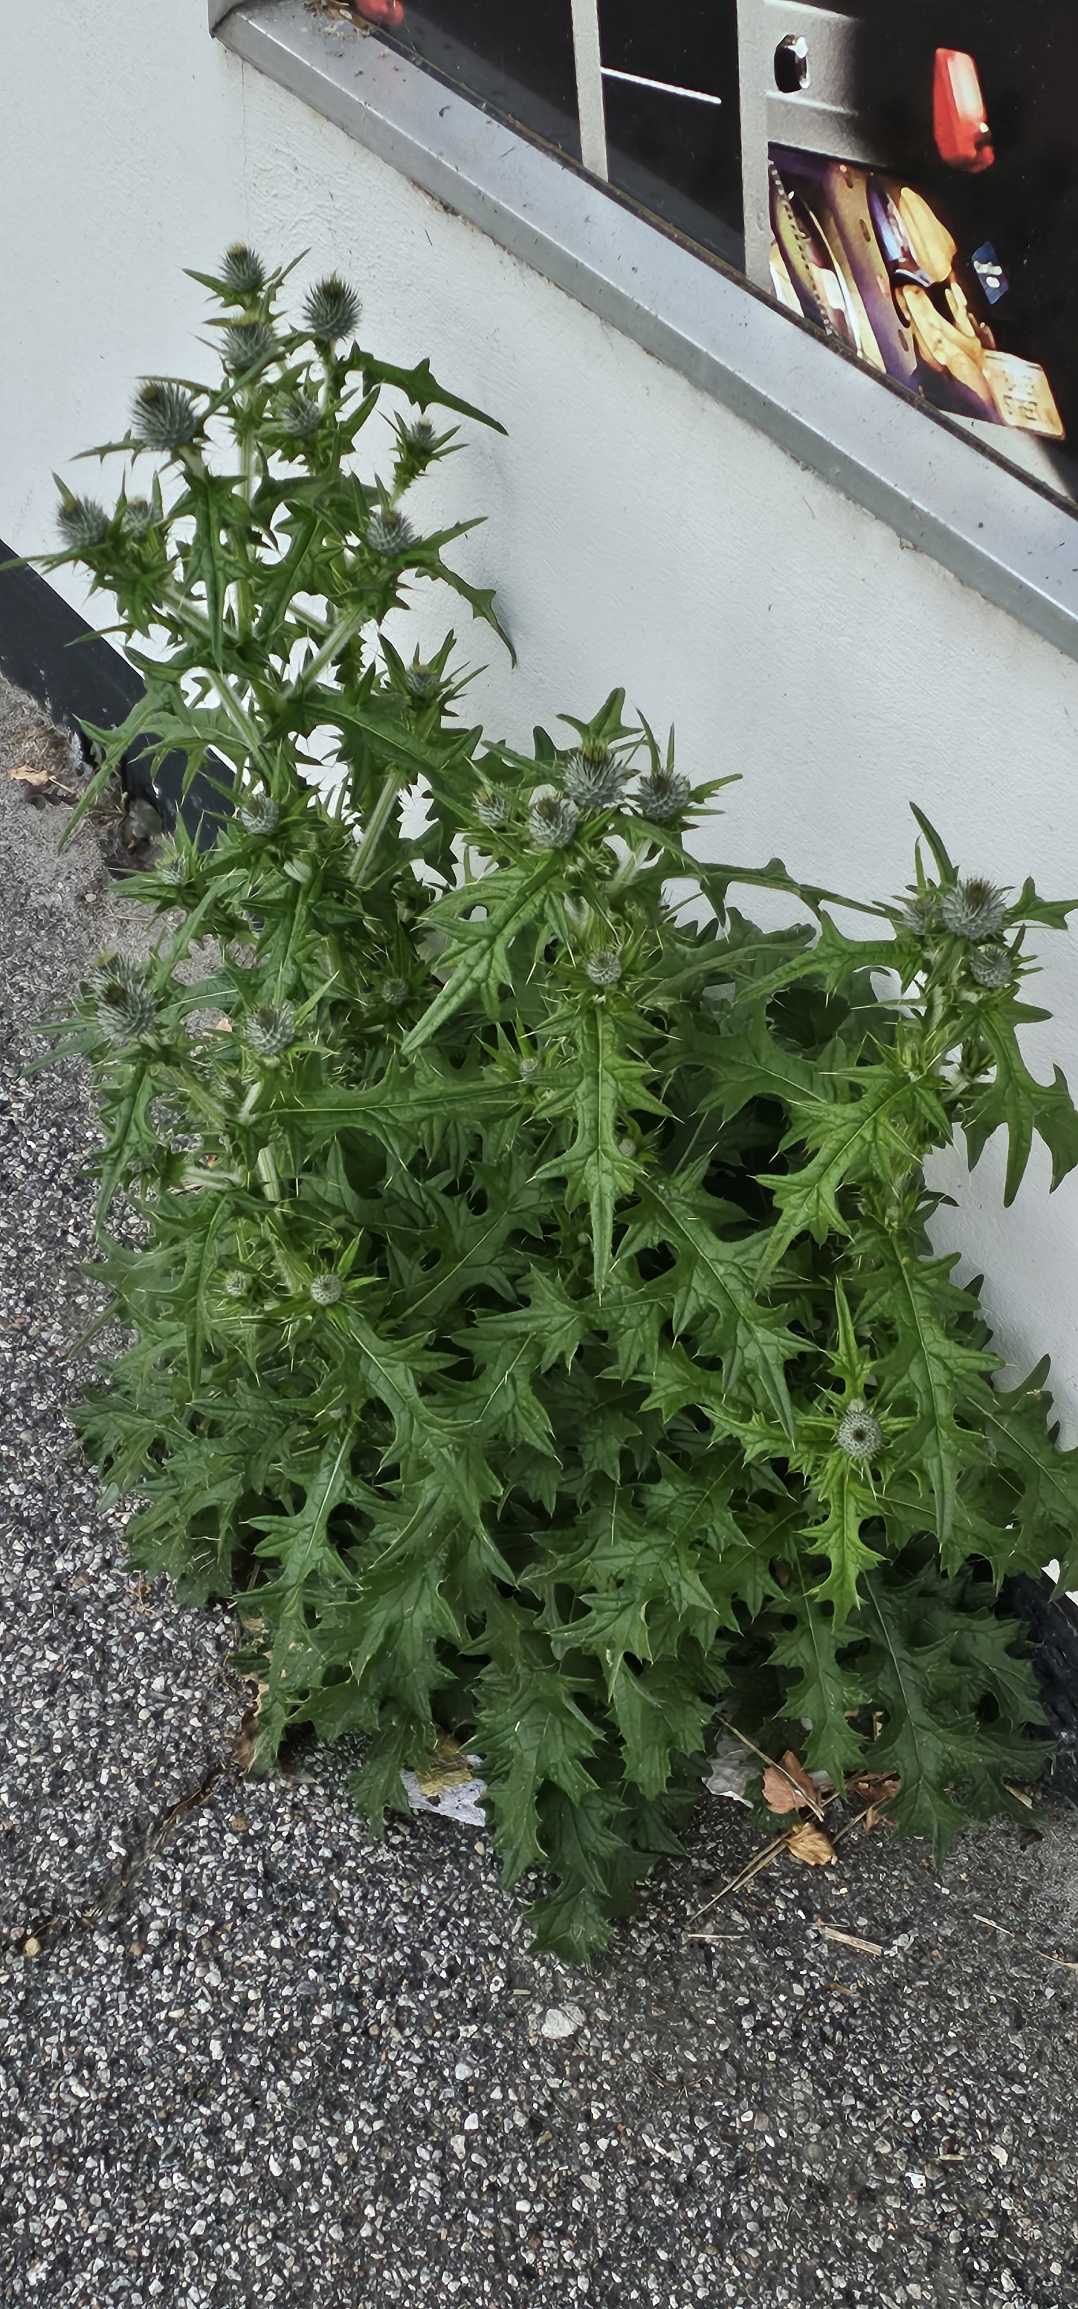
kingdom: Plantae
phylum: Tracheophyta
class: Magnoliopsida
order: Asterales
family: Asteraceae
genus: Cirsium
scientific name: Cirsium vulgare
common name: Horse-tidsel
